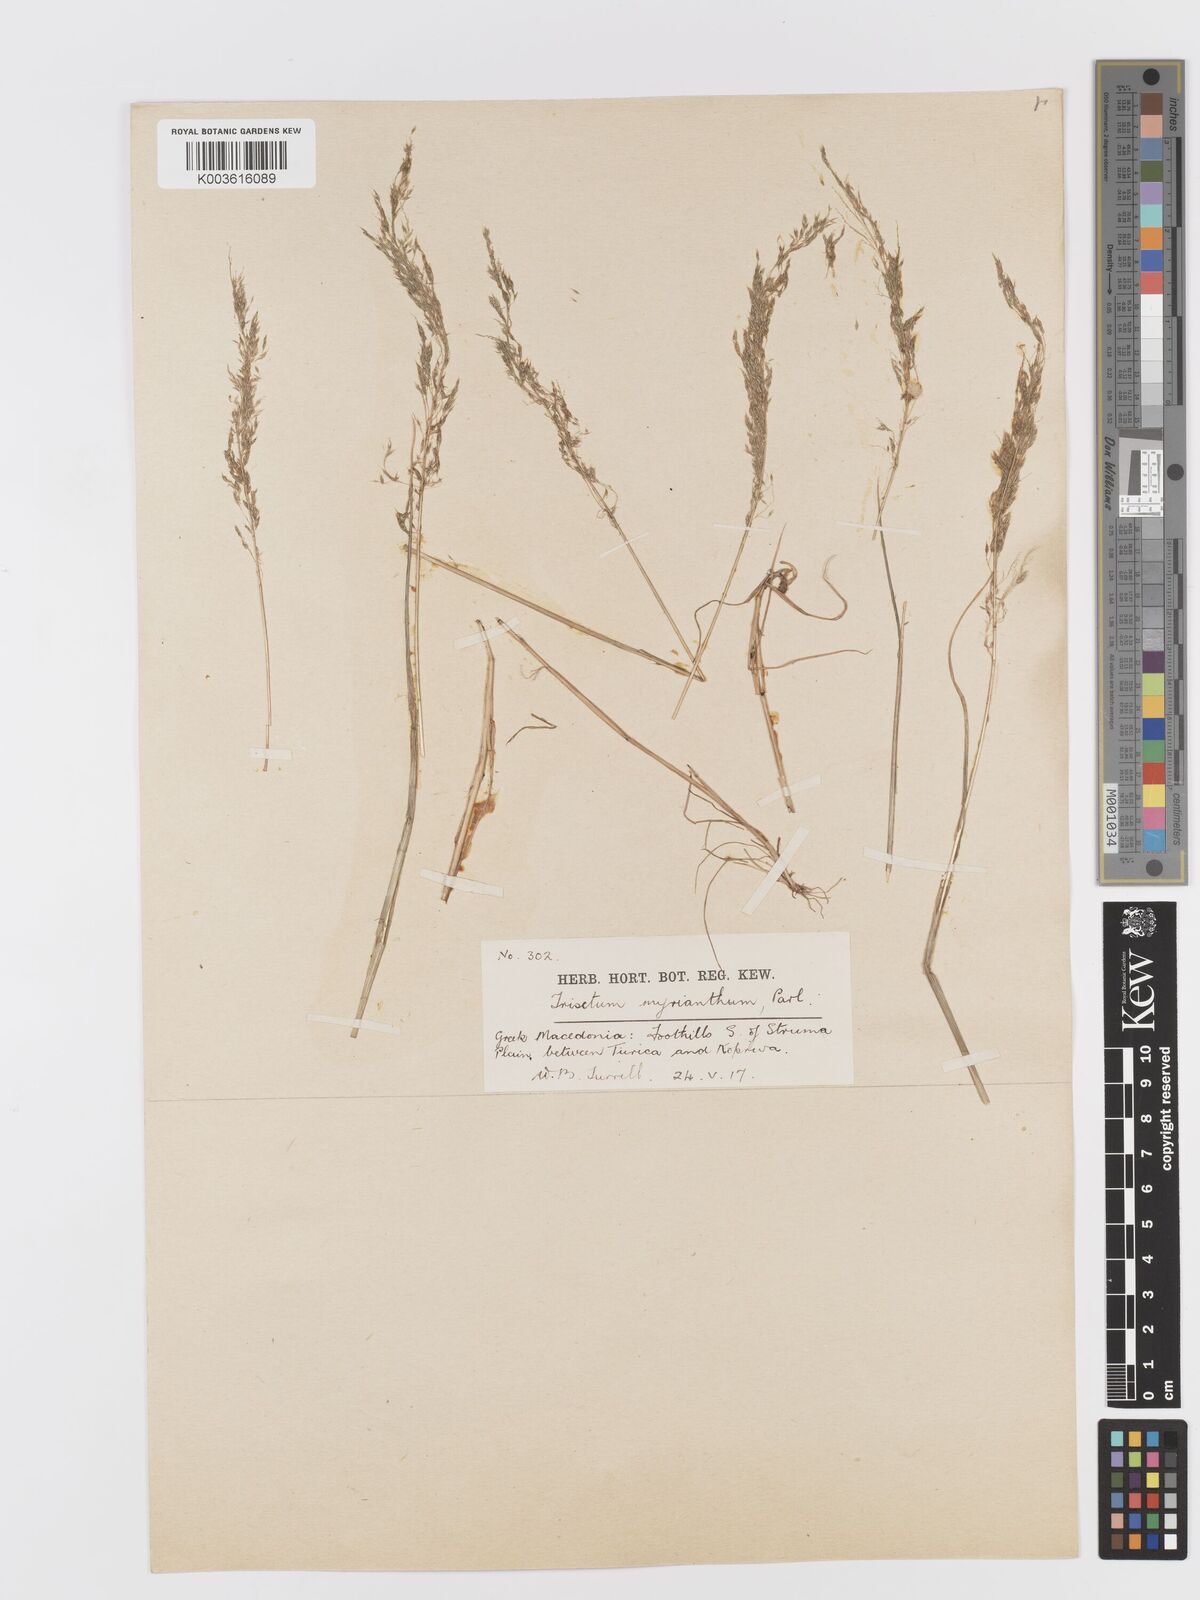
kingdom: Plantae
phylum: Tracheophyta
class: Liliopsida
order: Poales
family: Poaceae
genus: Parvotrisetum
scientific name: Parvotrisetum myrianthum
